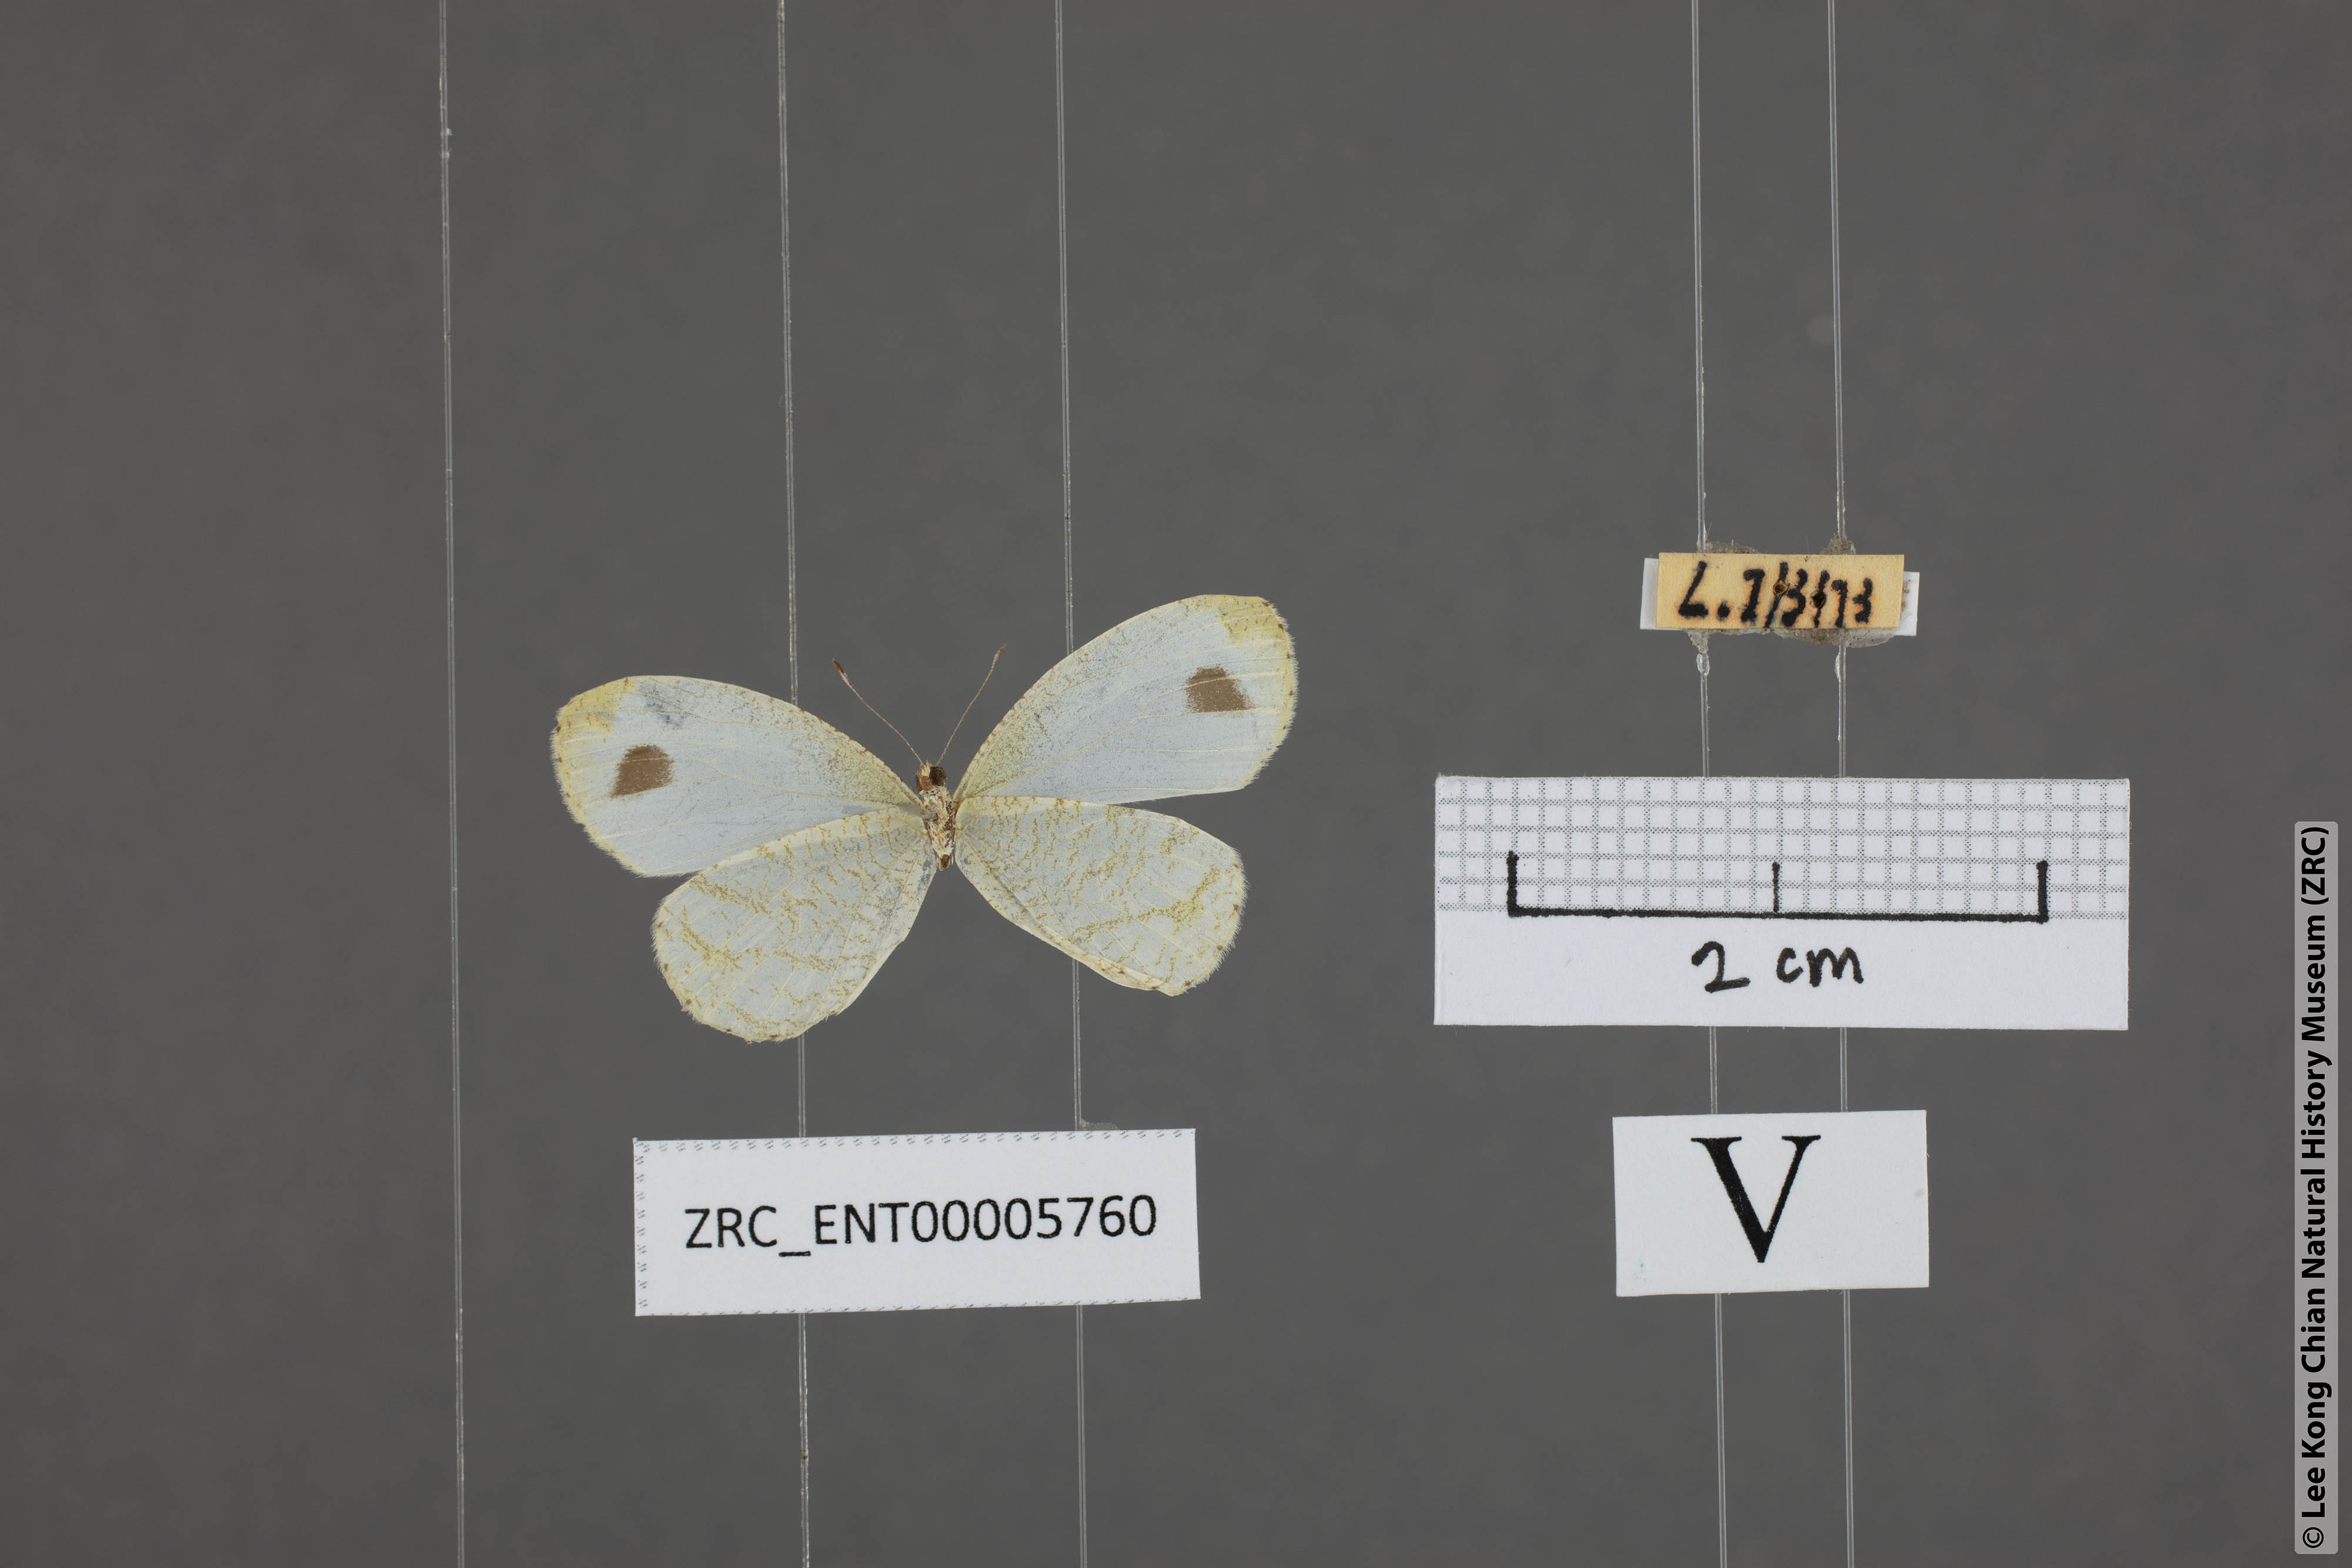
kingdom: Animalia
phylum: Arthropoda
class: Insecta
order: Lepidoptera
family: Pieridae
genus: Leptosia
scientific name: Leptosia nina
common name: Psyche
